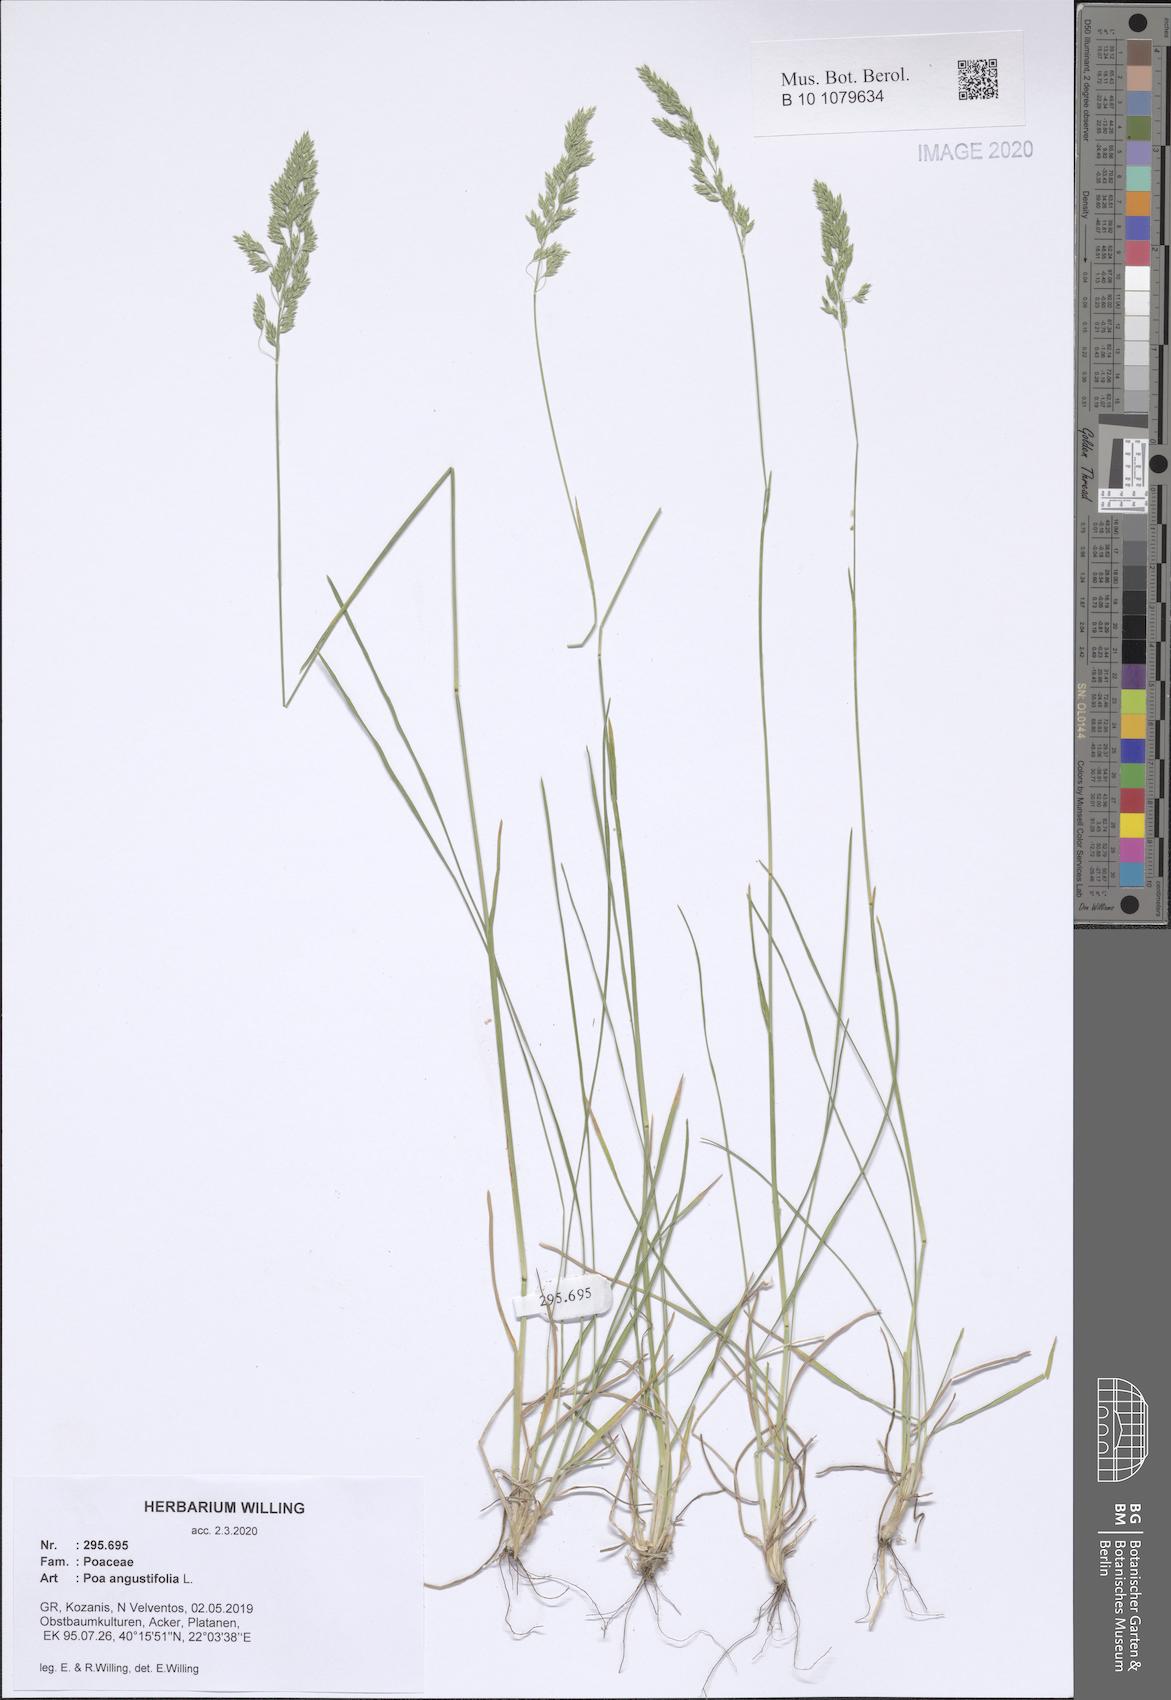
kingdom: Plantae
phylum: Tracheophyta
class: Liliopsida
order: Poales
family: Poaceae
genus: Poa
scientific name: Poa angustifolia
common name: Narrow-leaved meadow-grass
